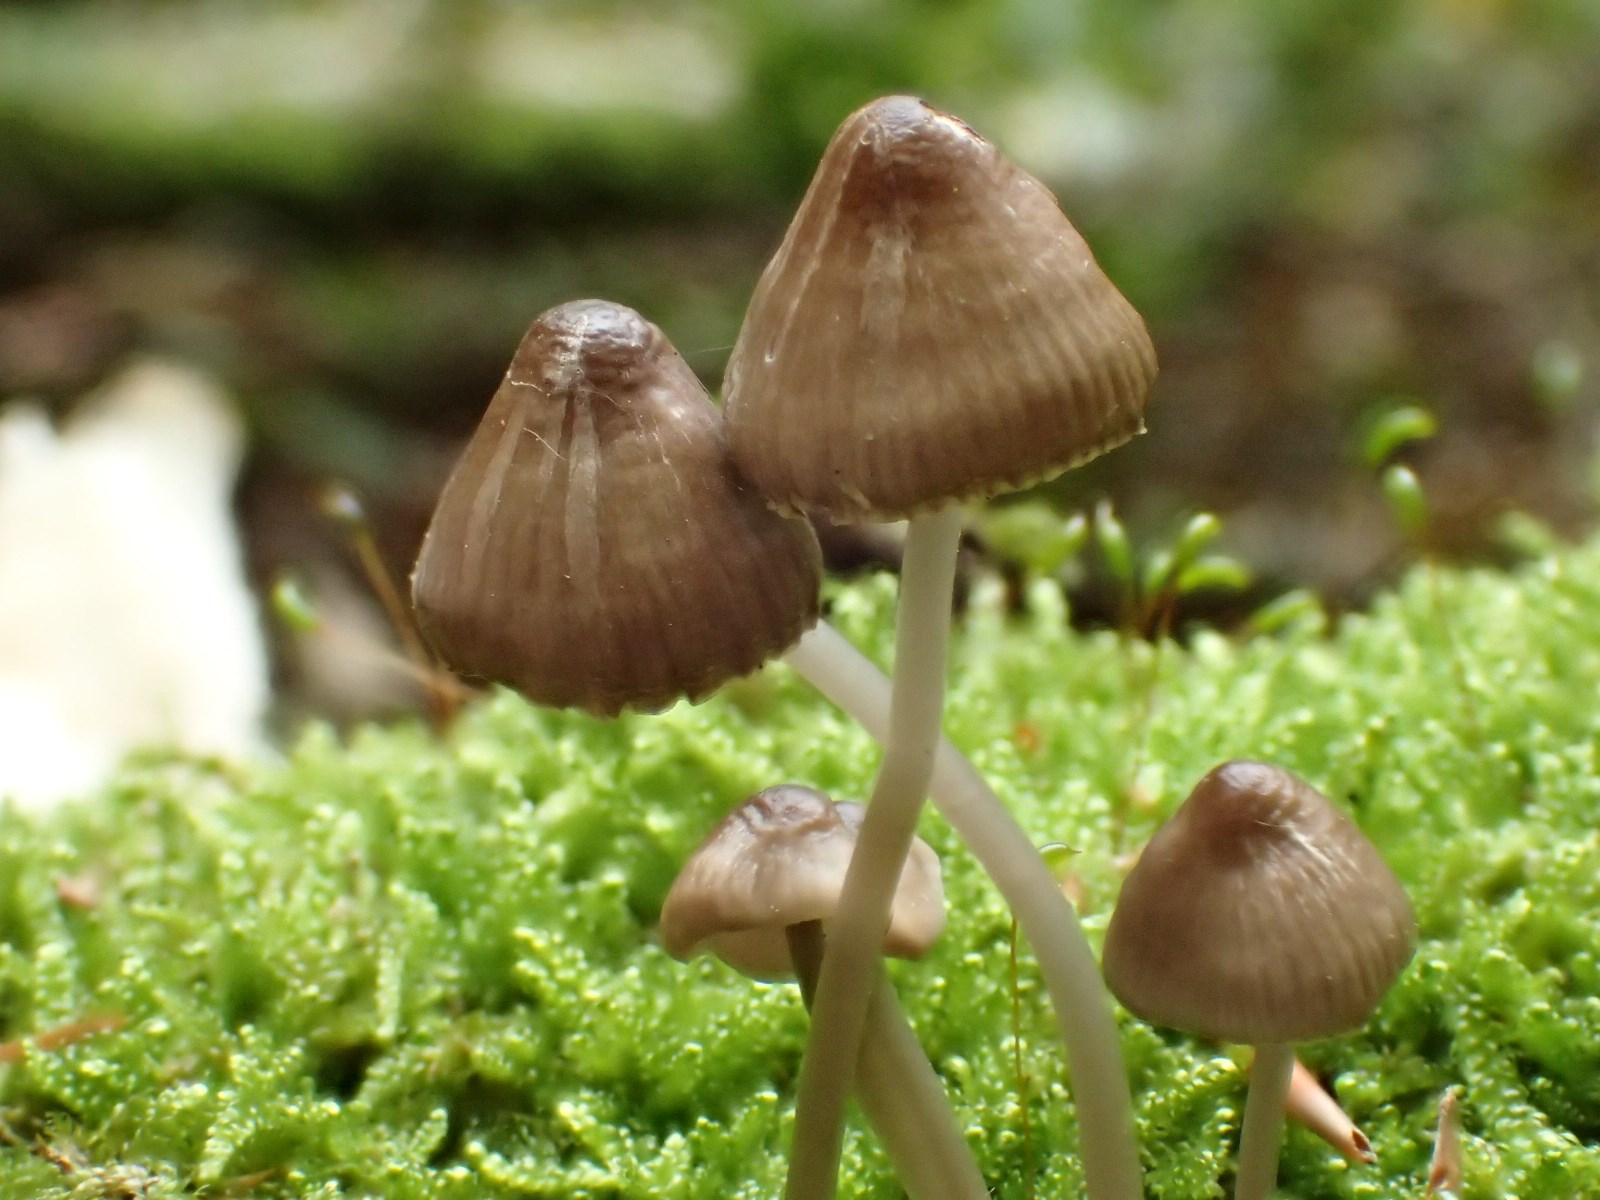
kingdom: Fungi
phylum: Basidiomycota
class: Agaricomycetes
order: Agaricales
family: Mycenaceae
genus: Mycena
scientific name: Mycena galericulata
